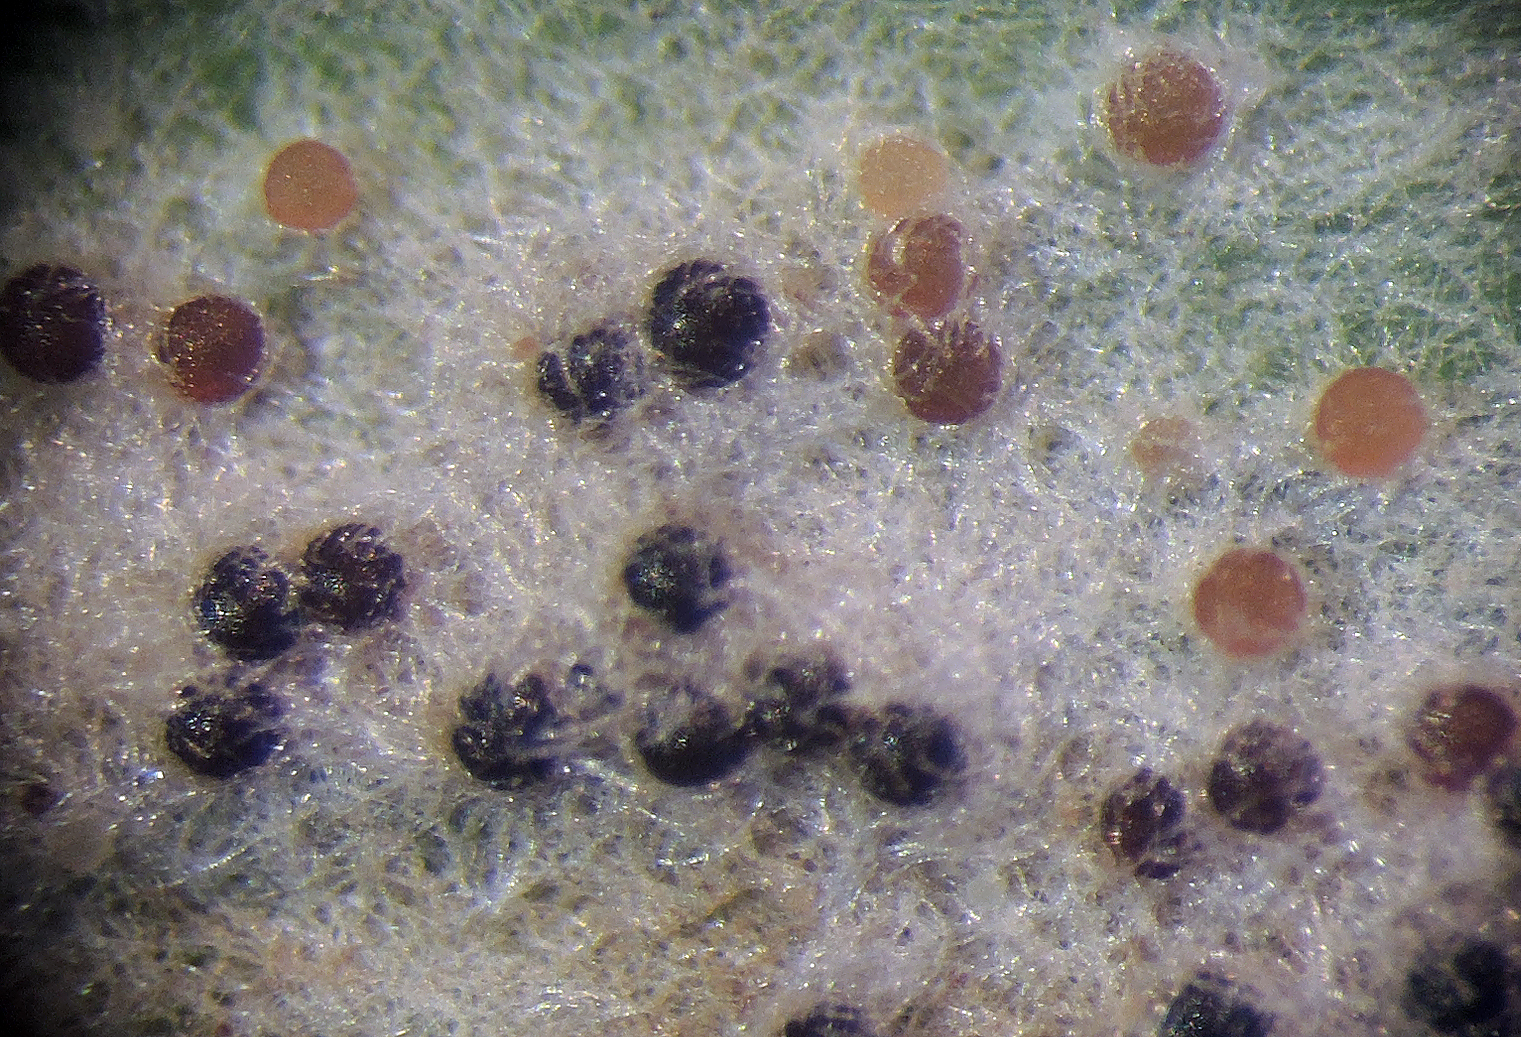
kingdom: Fungi
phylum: Ascomycota
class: Leotiomycetes
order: Helotiales
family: Erysiphaceae
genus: Blumeria
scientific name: Blumeria graminis
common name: græs-meldug
